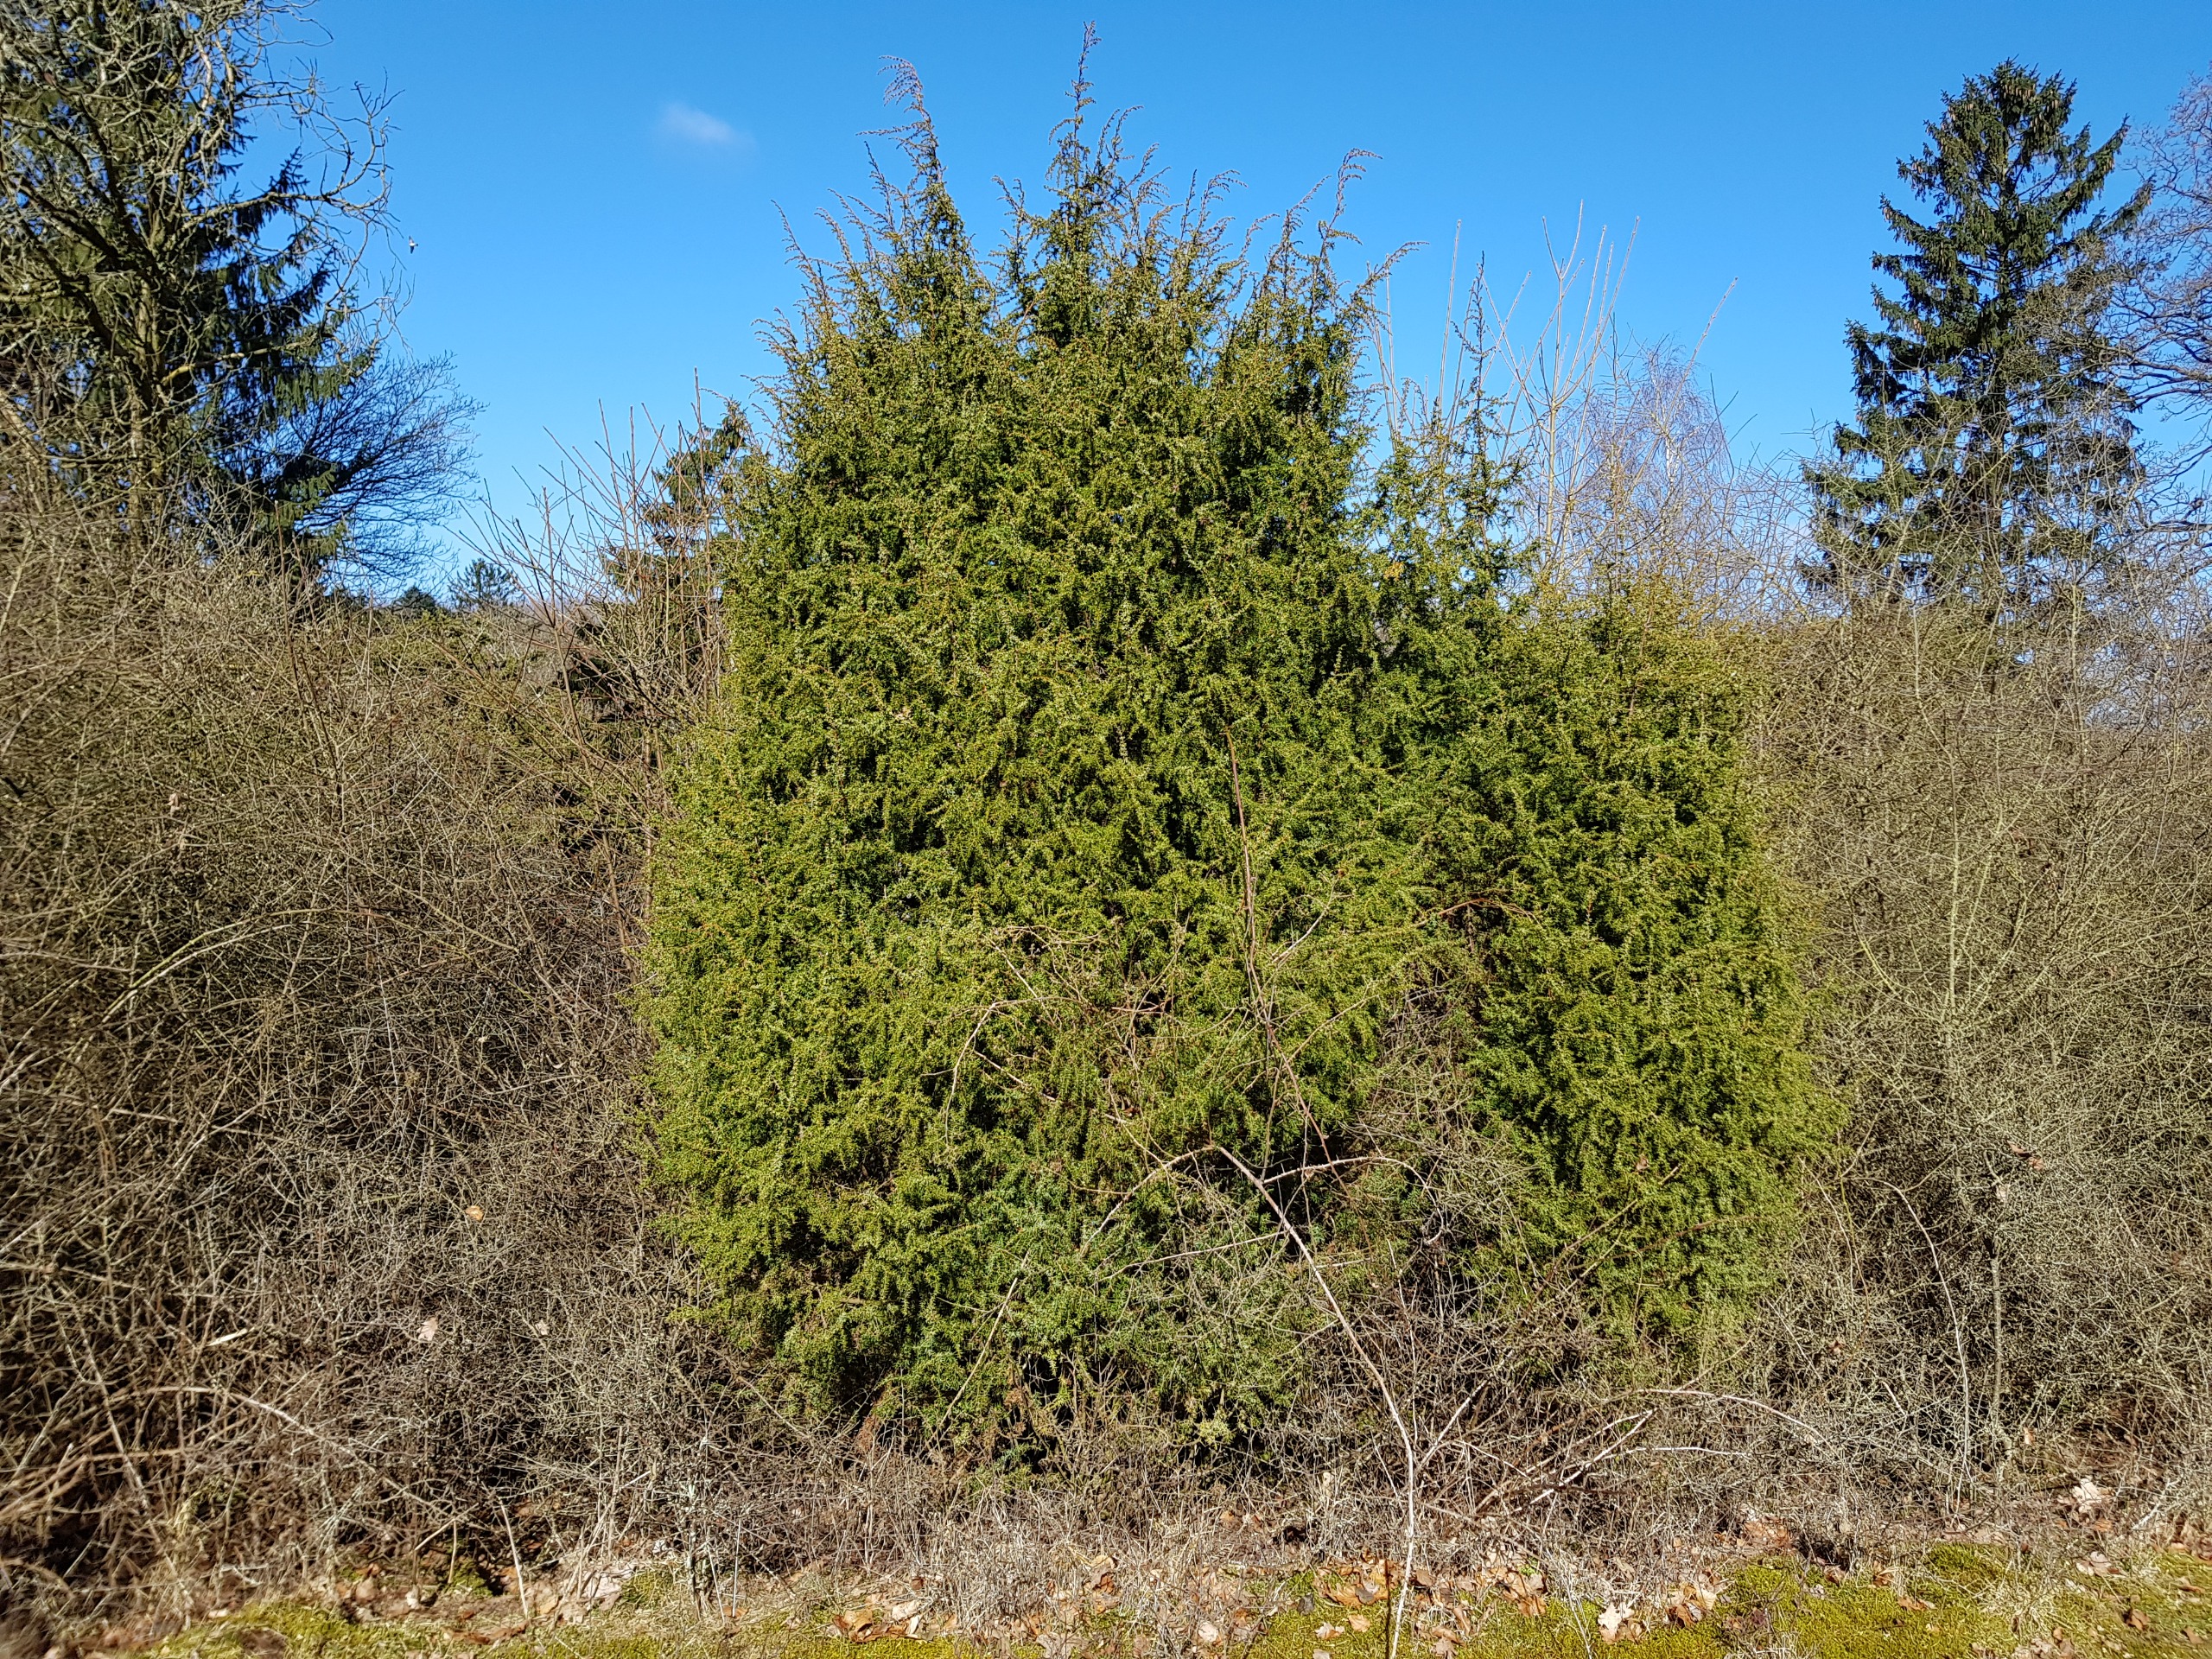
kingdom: Plantae
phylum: Tracheophyta
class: Pinopsida
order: Pinales
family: Cupressaceae
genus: Juniperus
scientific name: Juniperus communis
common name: Almindelig ene
